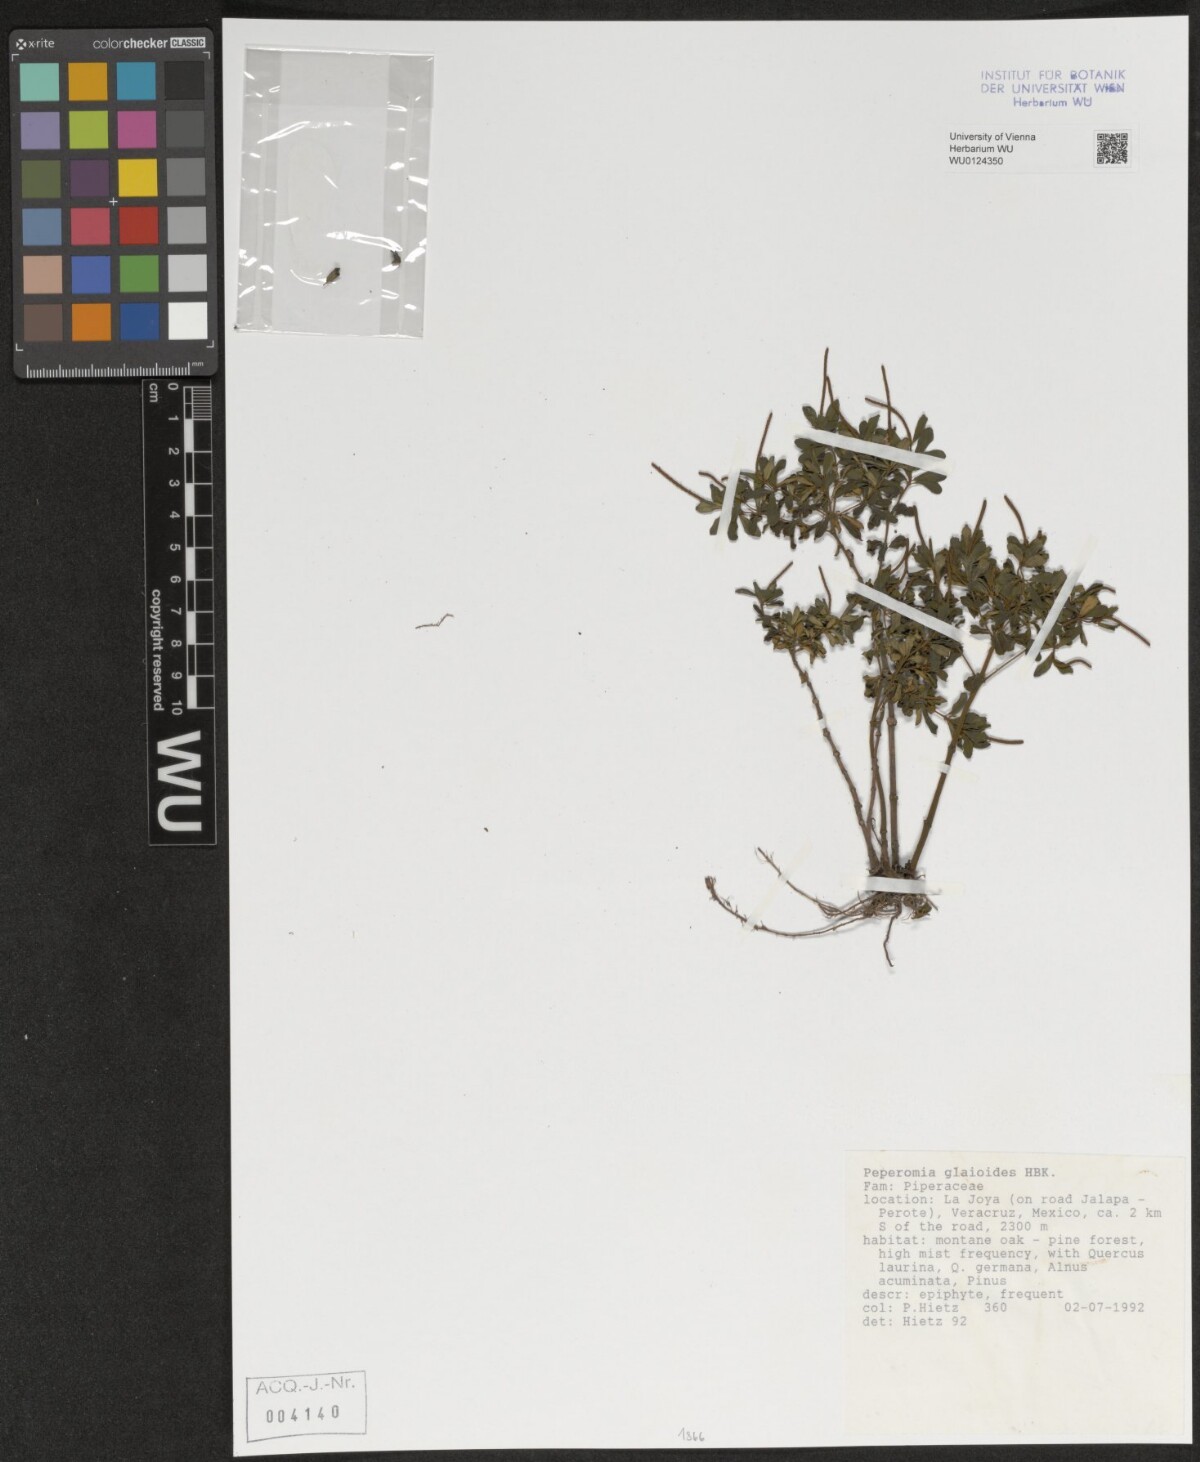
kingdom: Plantae
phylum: Tracheophyta
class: Magnoliopsida
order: Piperales
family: Piperaceae
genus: Peperomia
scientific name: Peperomia galioides
